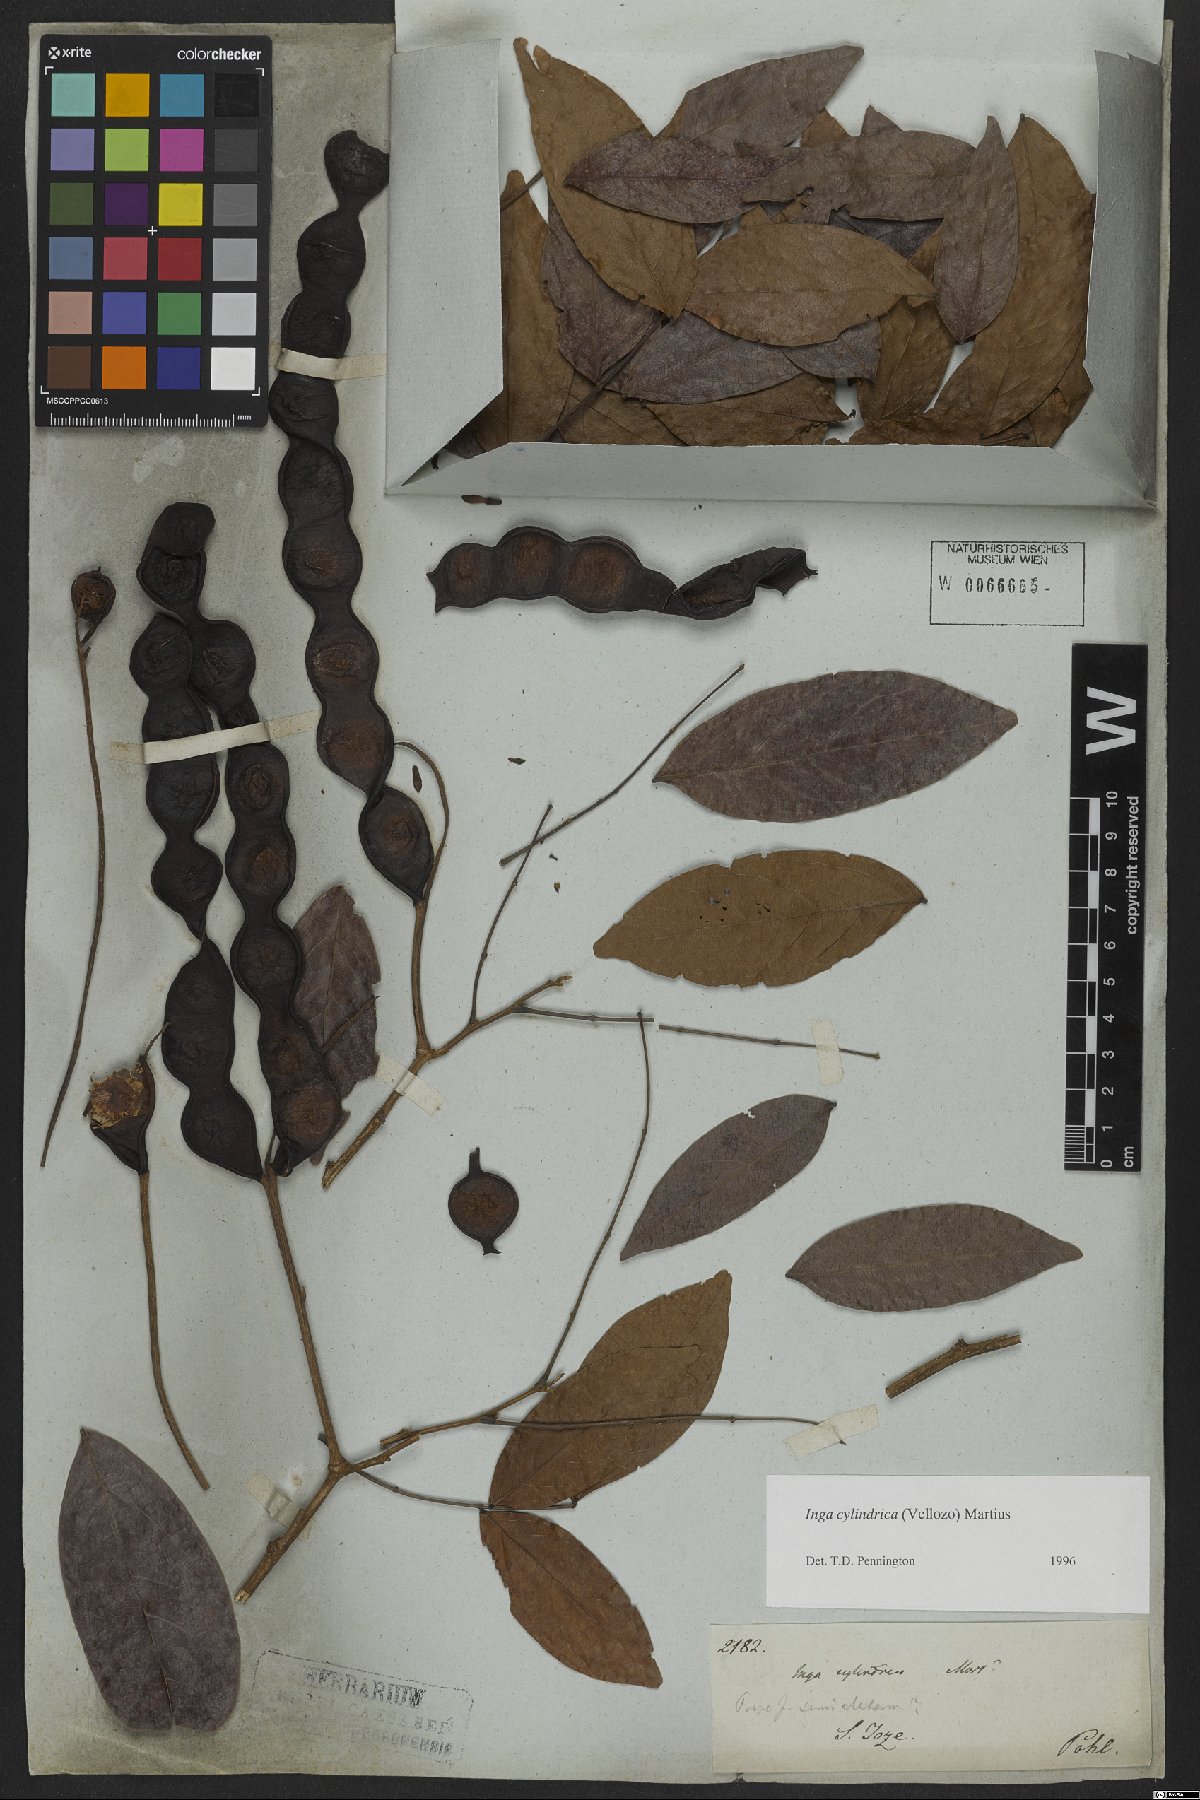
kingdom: Plantae
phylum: Tracheophyta
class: Magnoliopsida
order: Fabales
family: Fabaceae
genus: Inga
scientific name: Inga cylindrica
